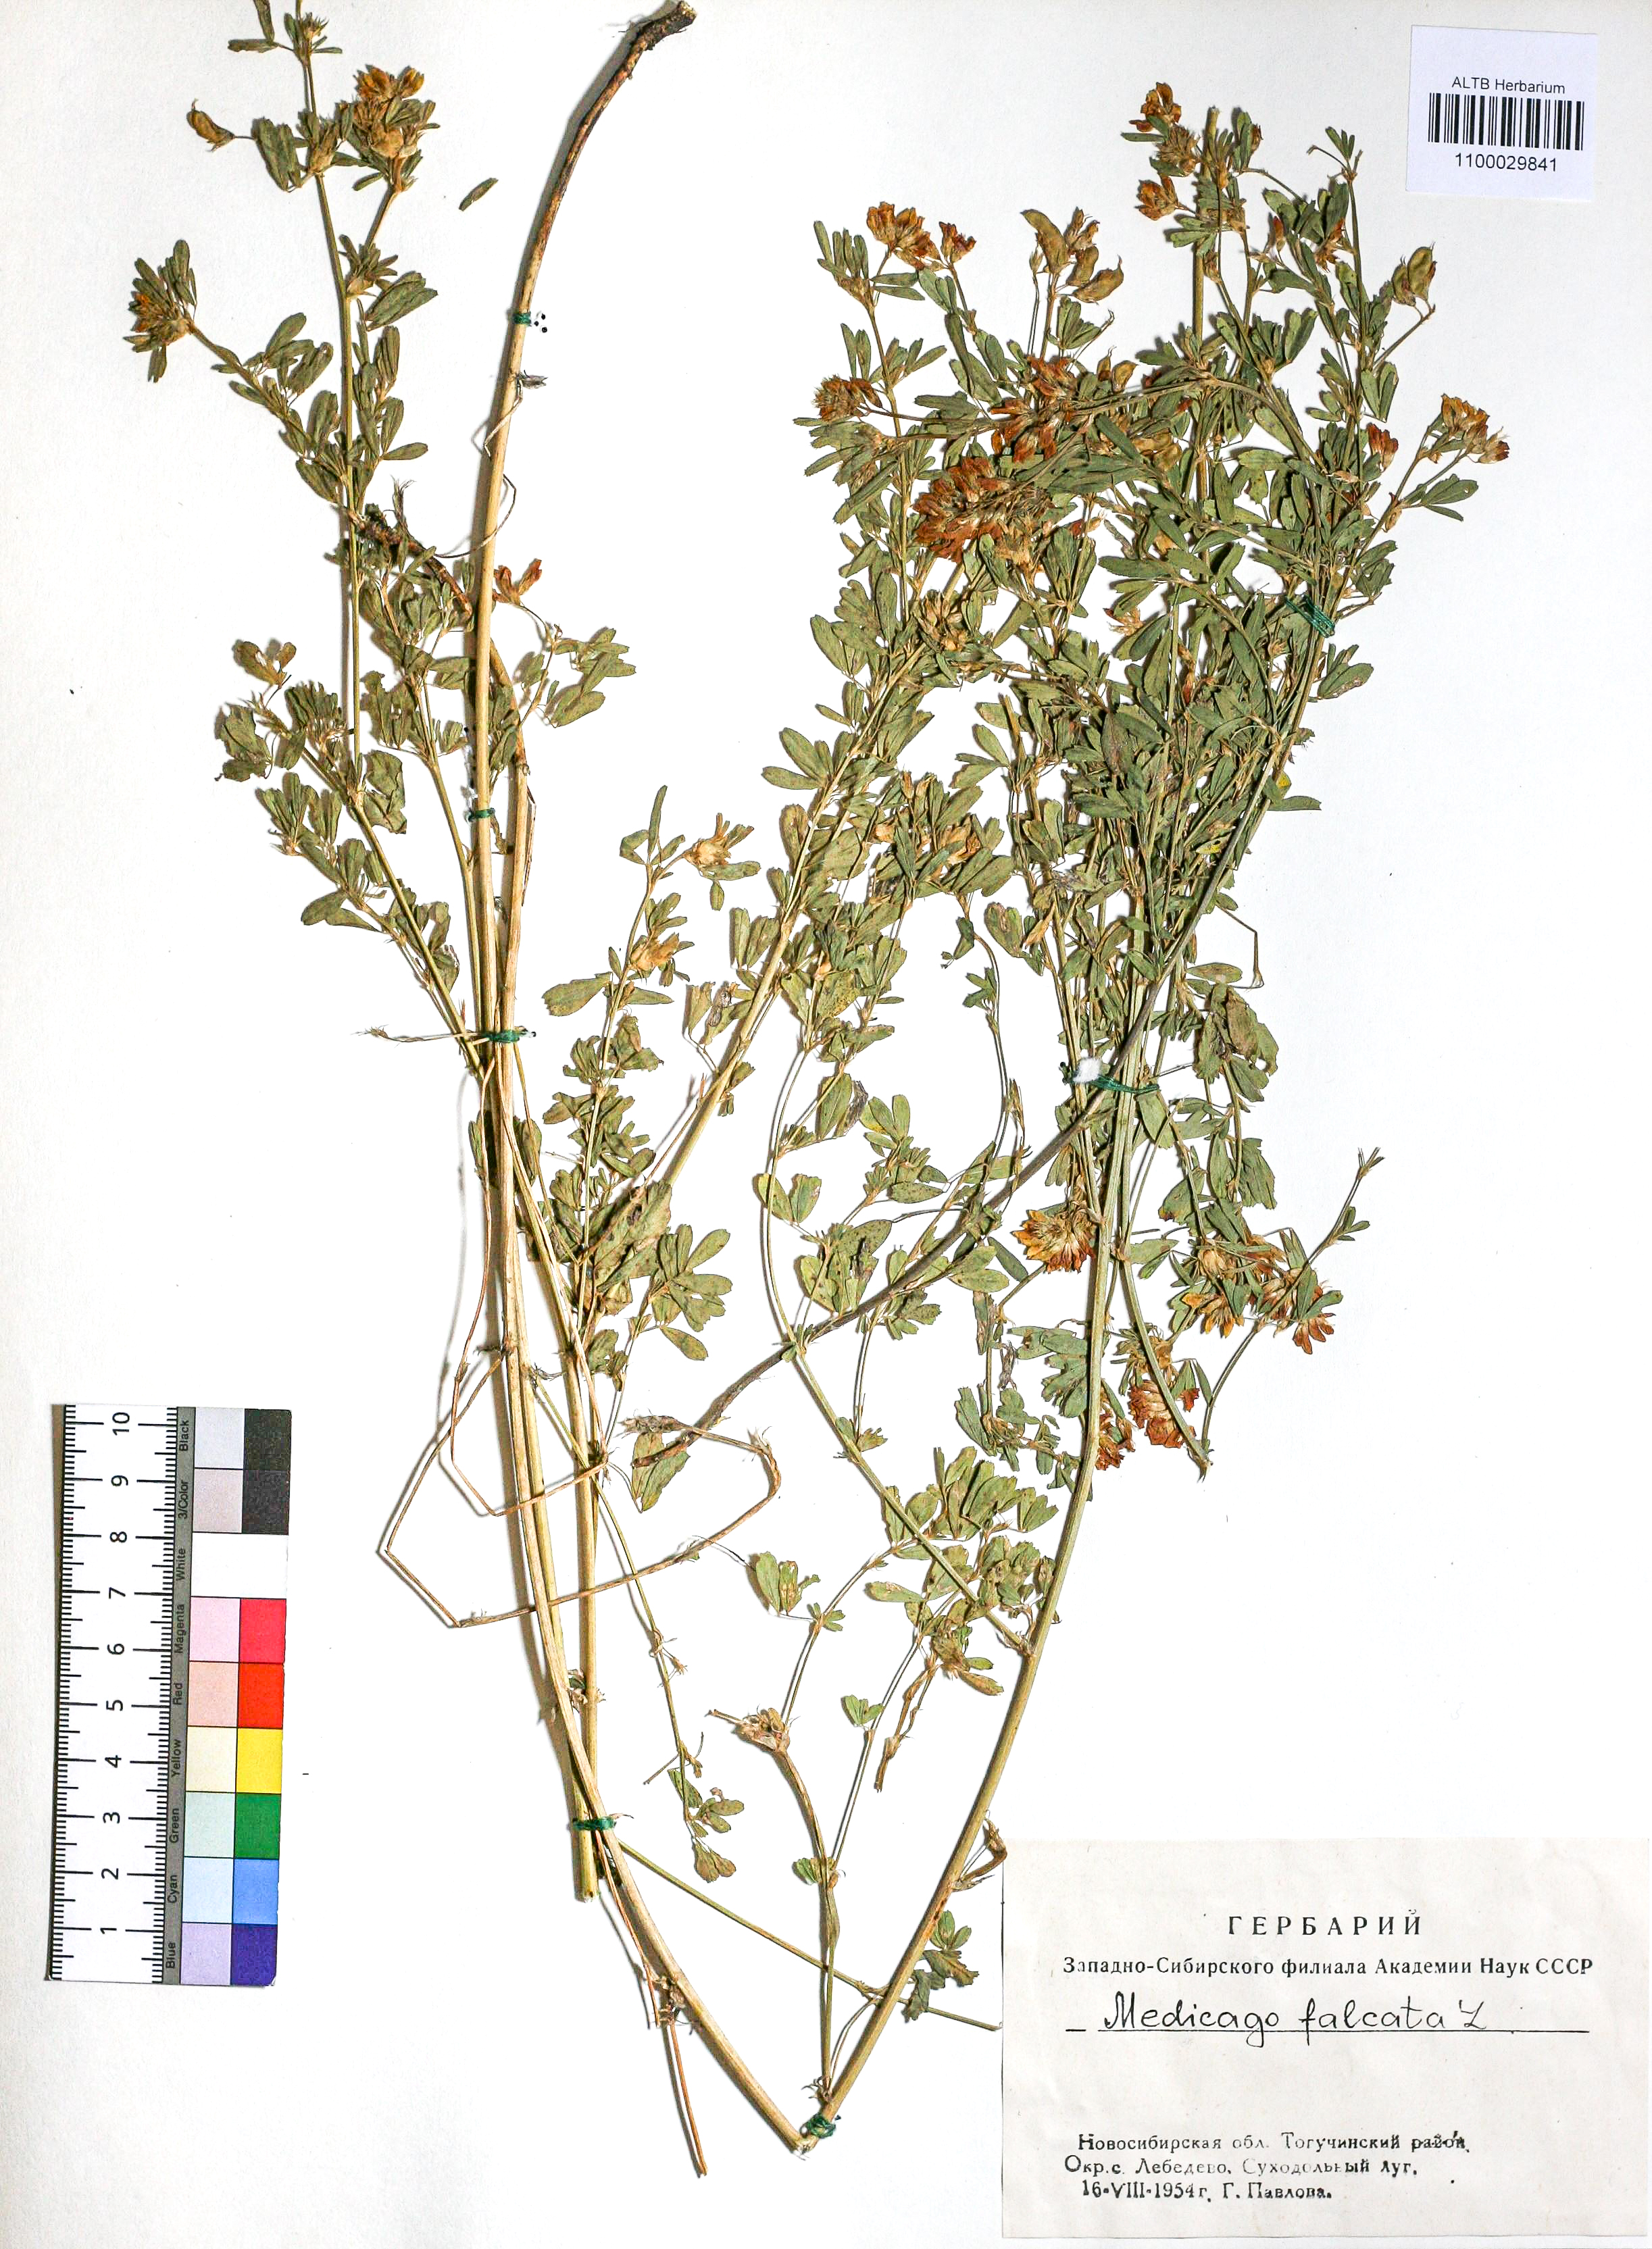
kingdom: Plantae
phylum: Tracheophyta
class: Magnoliopsida
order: Fabales
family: Fabaceae
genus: Medicago
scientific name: Medicago falcata
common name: Sickle medick
